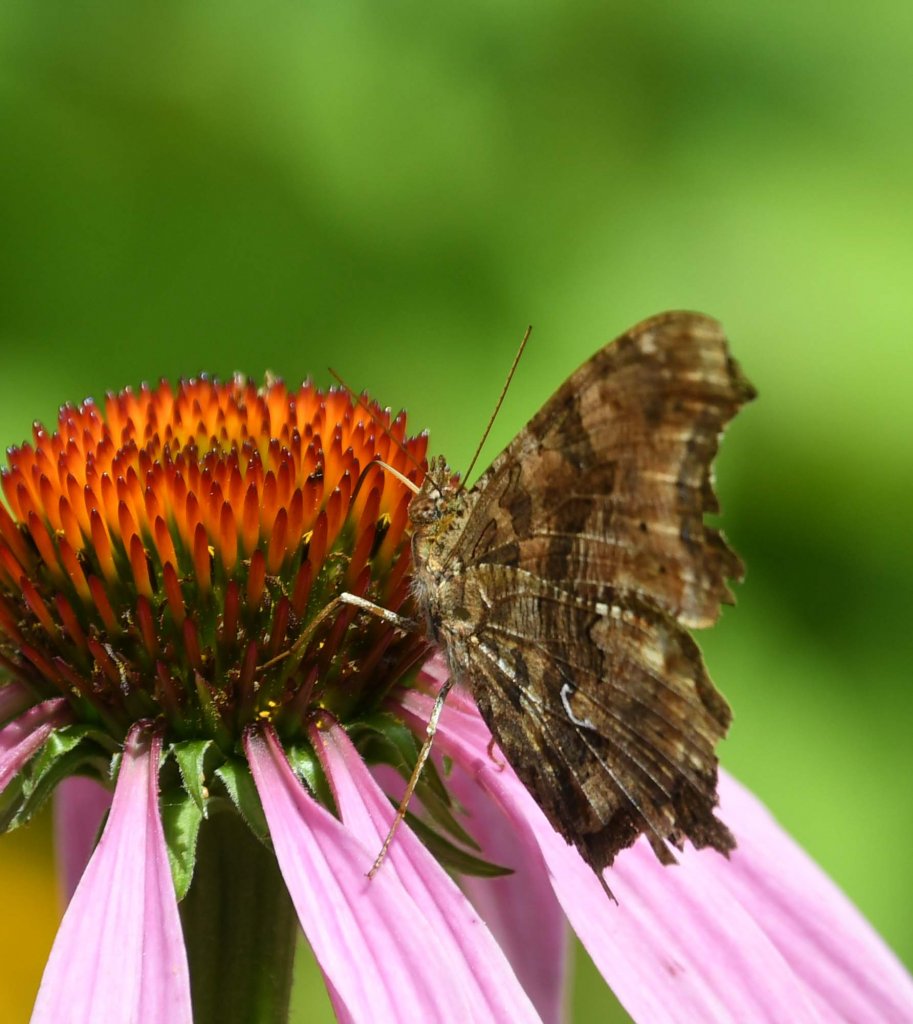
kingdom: Animalia
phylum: Arthropoda
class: Insecta
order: Lepidoptera
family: Nymphalidae
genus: Polygonia
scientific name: Polygonia comma
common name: Eastern Comma
